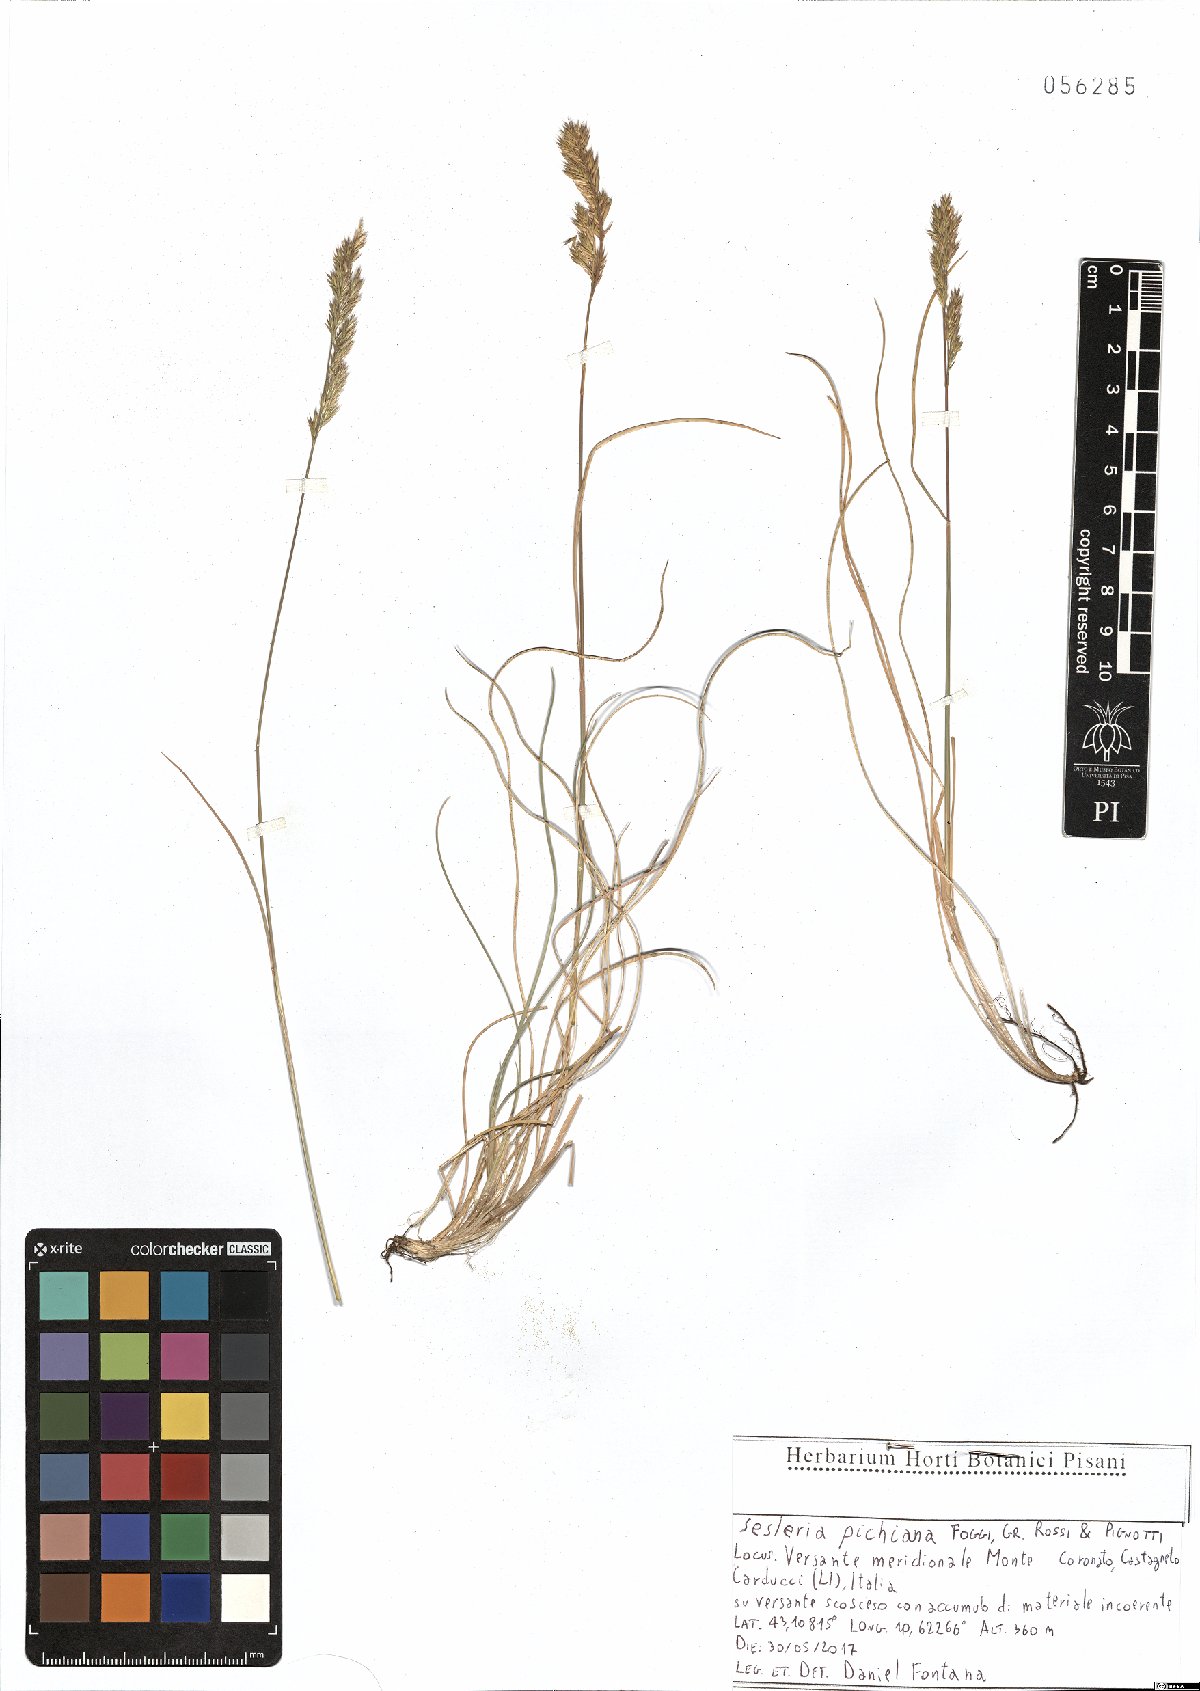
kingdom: Plantae
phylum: Tracheophyta
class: Liliopsida
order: Poales
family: Poaceae
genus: Sesleria
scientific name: Sesleria pichiana
